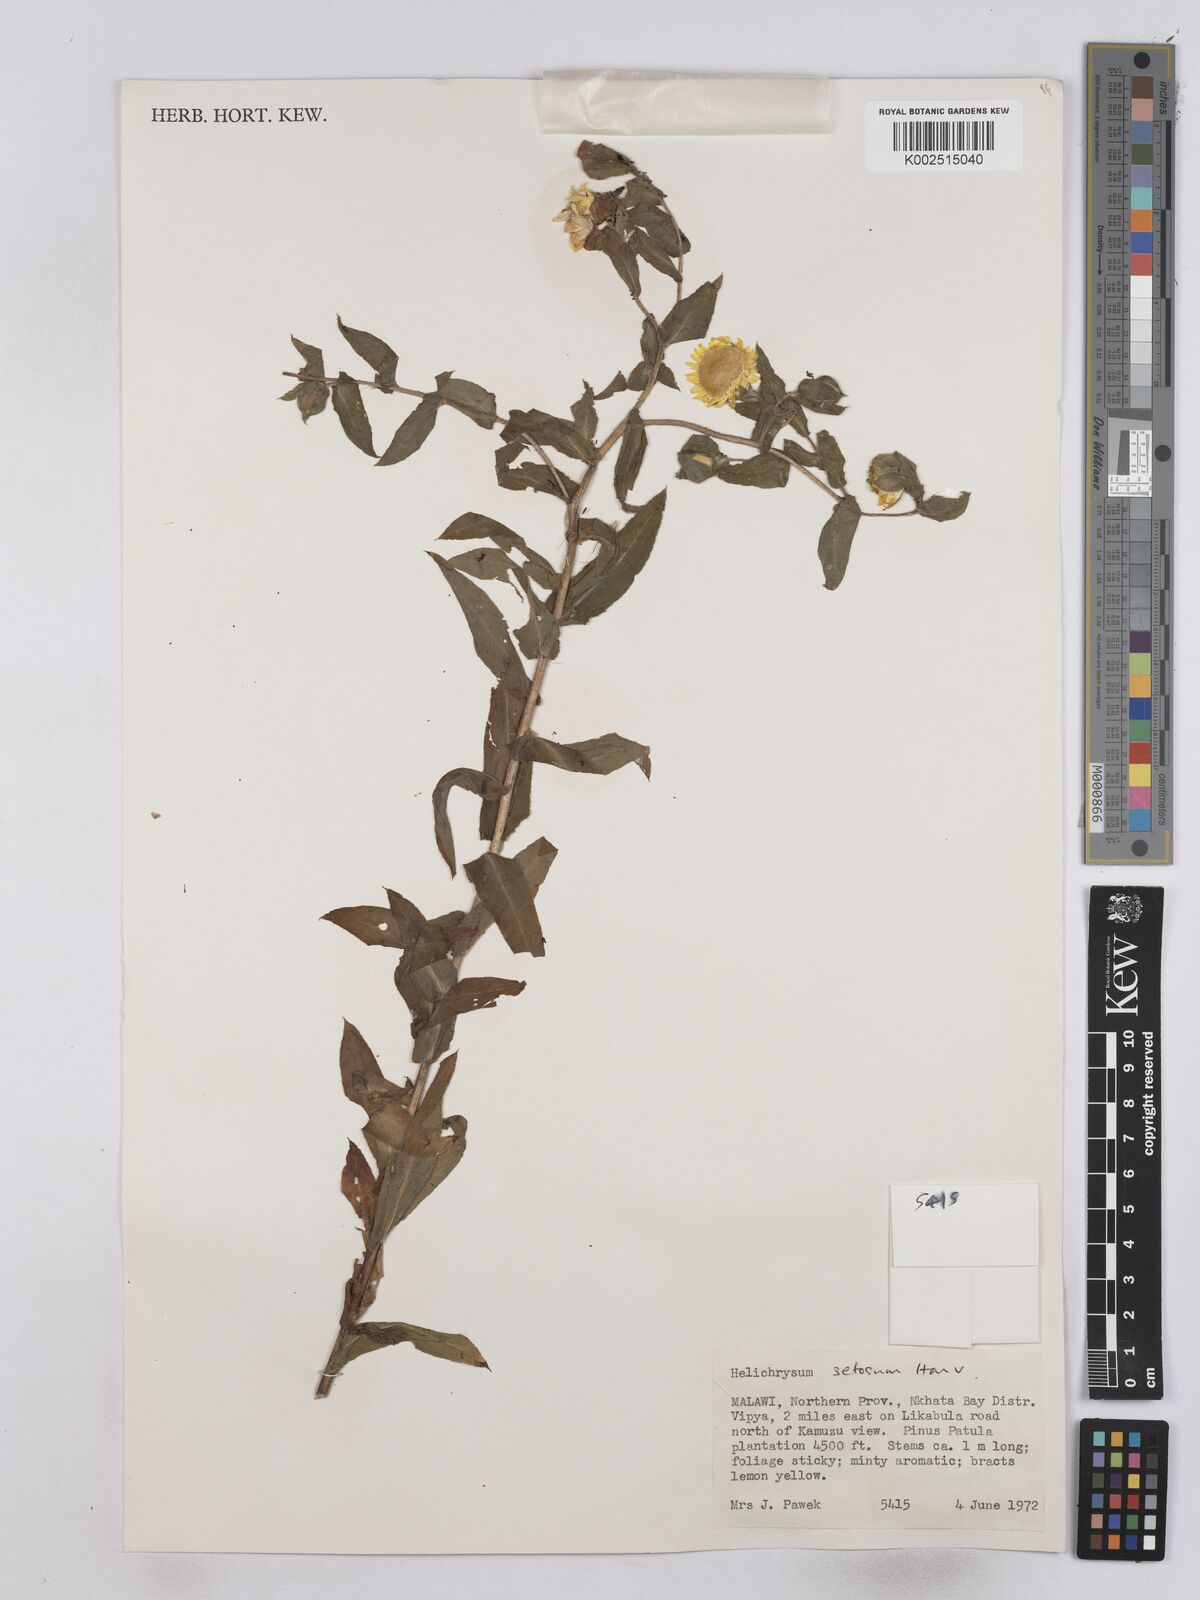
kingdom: Plantae
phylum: Tracheophyta
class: Magnoliopsida
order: Asterales
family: Asteraceae
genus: Helichrysum
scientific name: Helichrysum setosum
